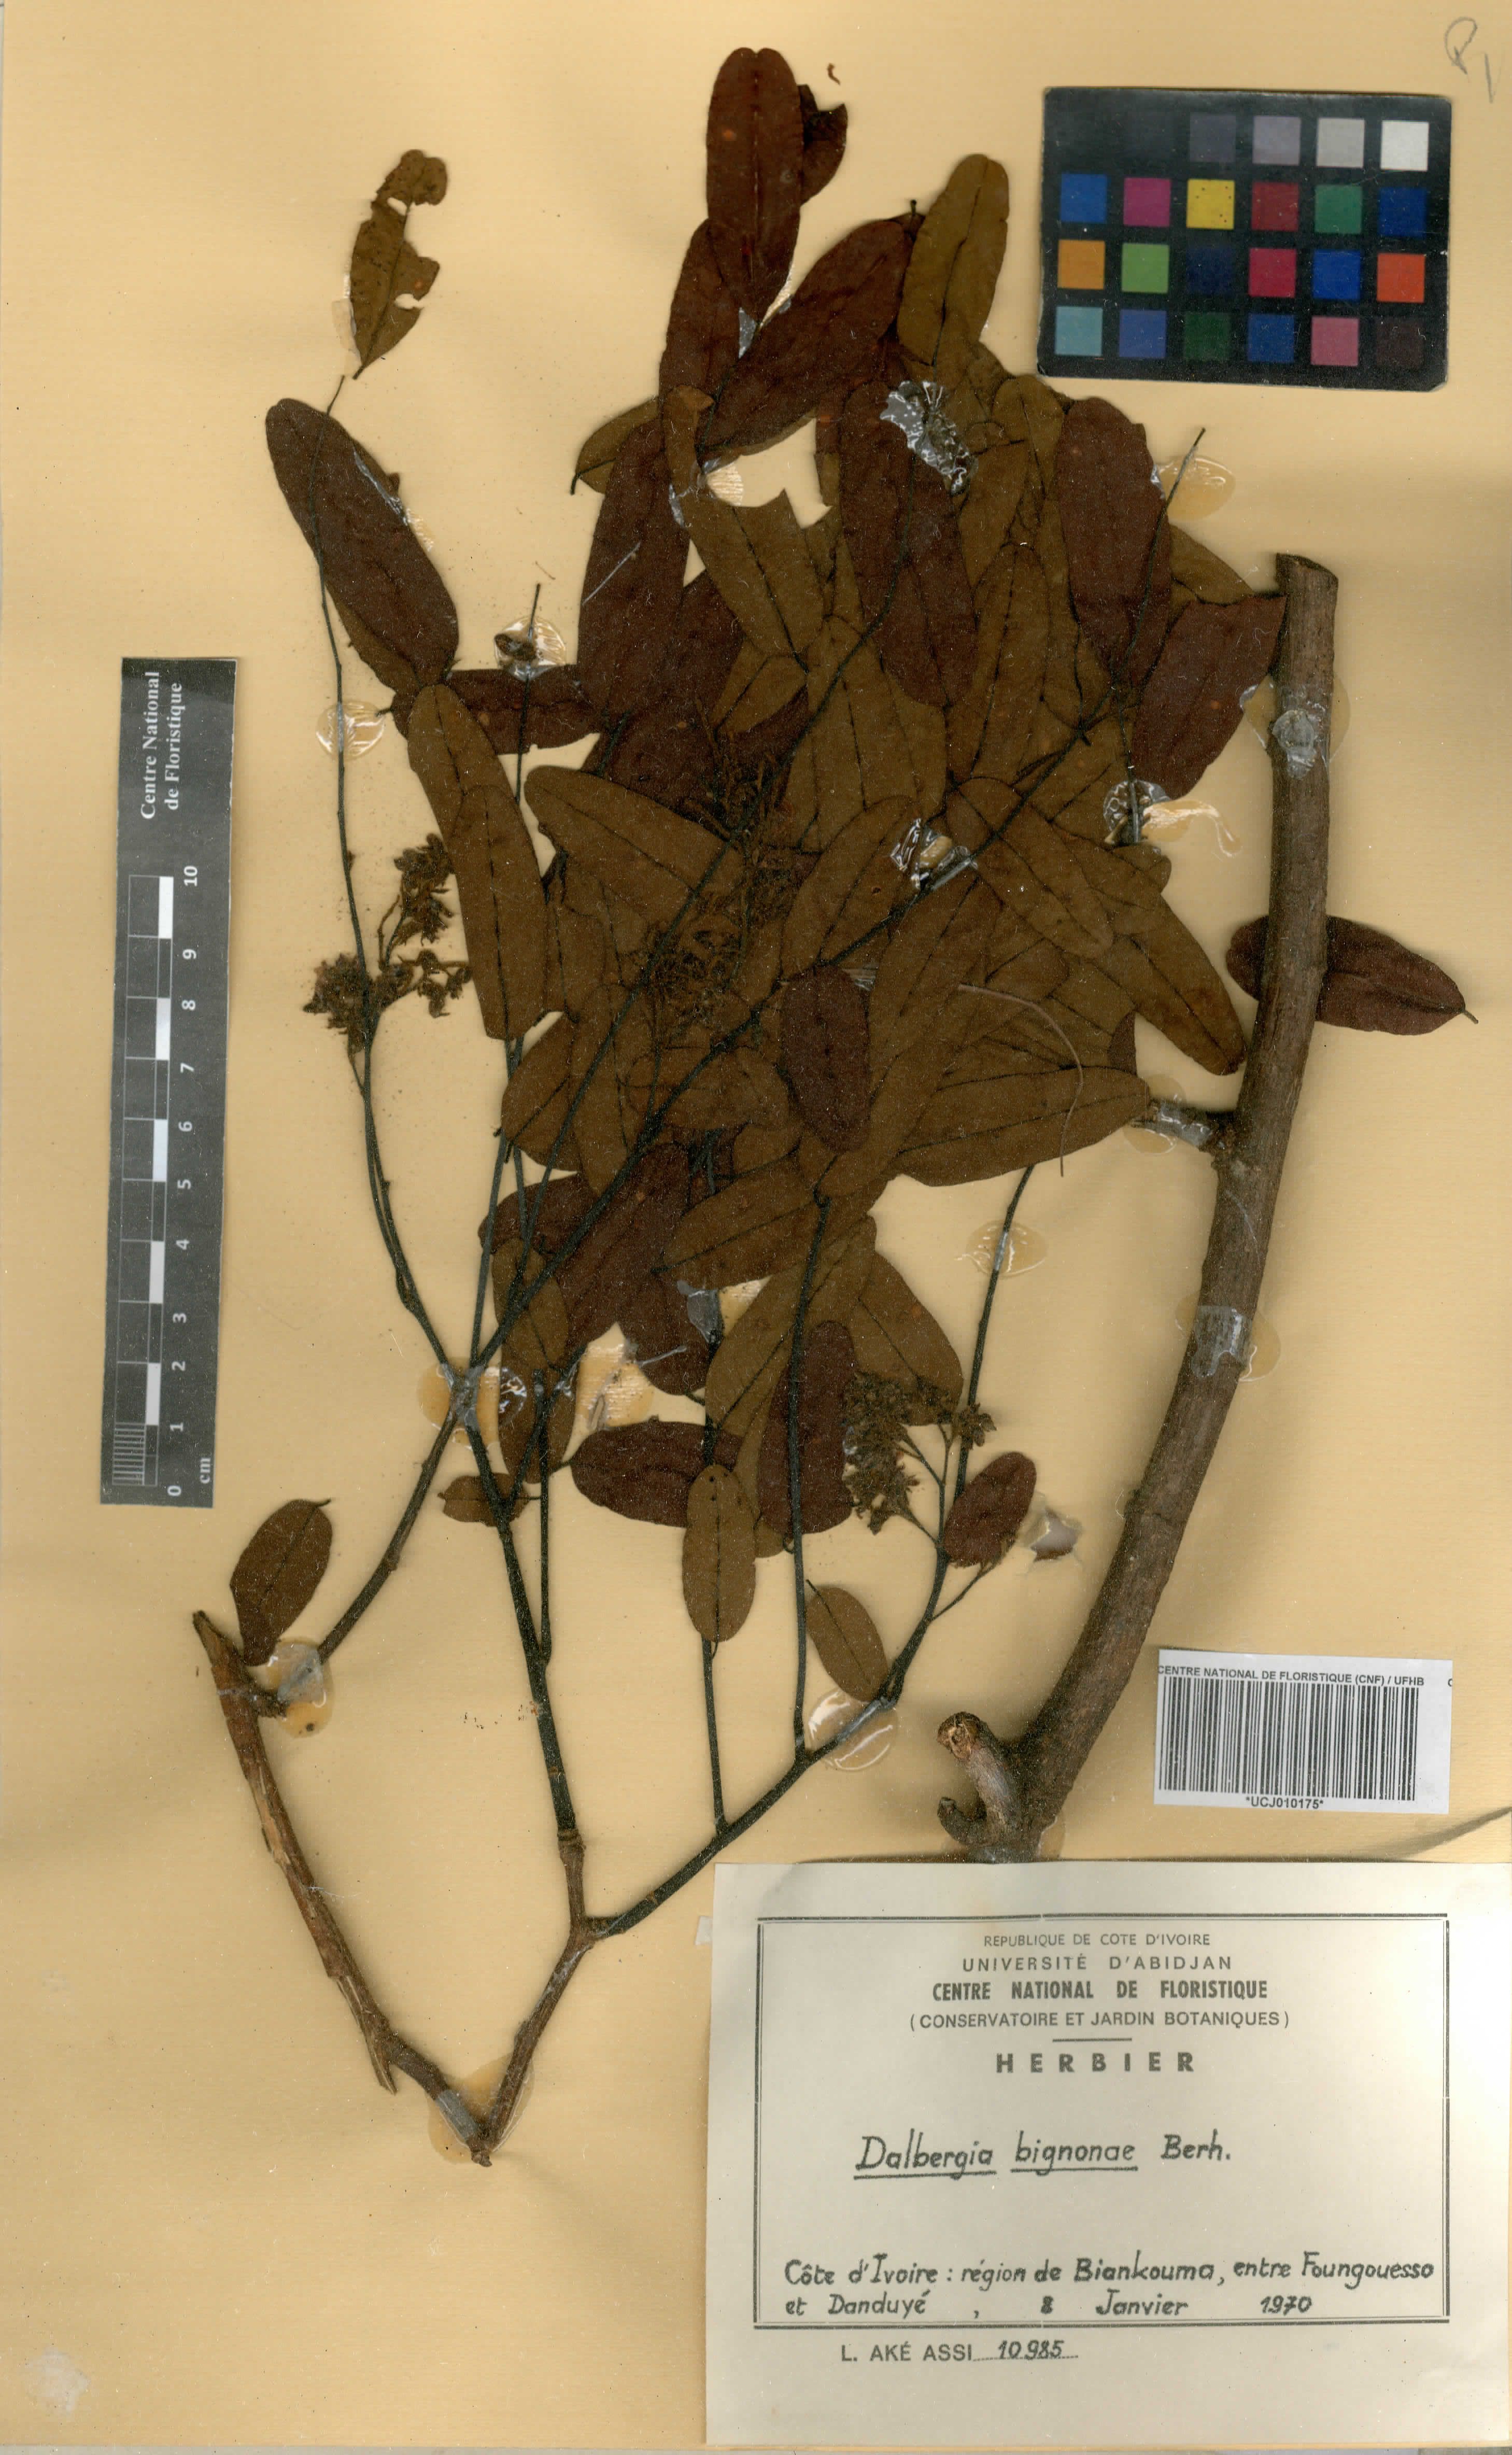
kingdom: Plantae
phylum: Tracheophyta
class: Magnoliopsida
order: Fabales
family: Fabaceae
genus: Dalbergia
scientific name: Dalbergia mayumbensis
